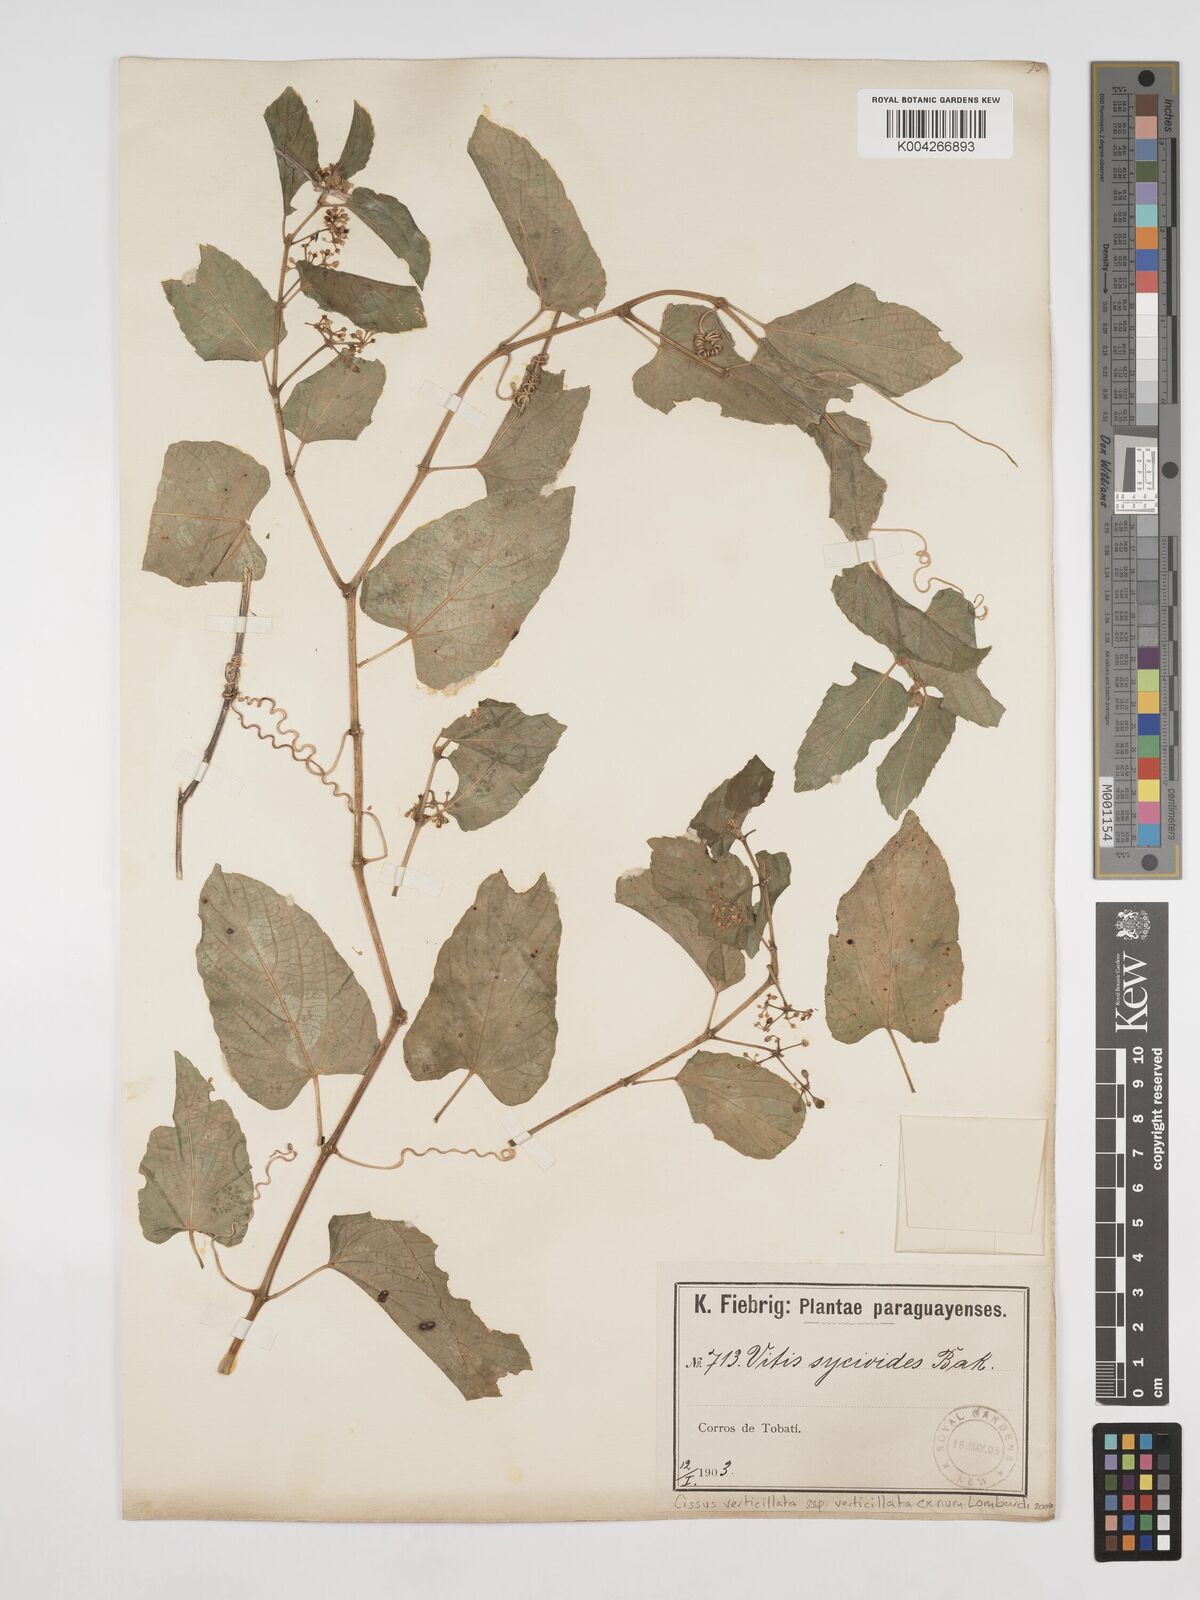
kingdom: Plantae
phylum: Tracheophyta
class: Magnoliopsida
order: Vitales
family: Vitaceae
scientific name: Vitaceae
